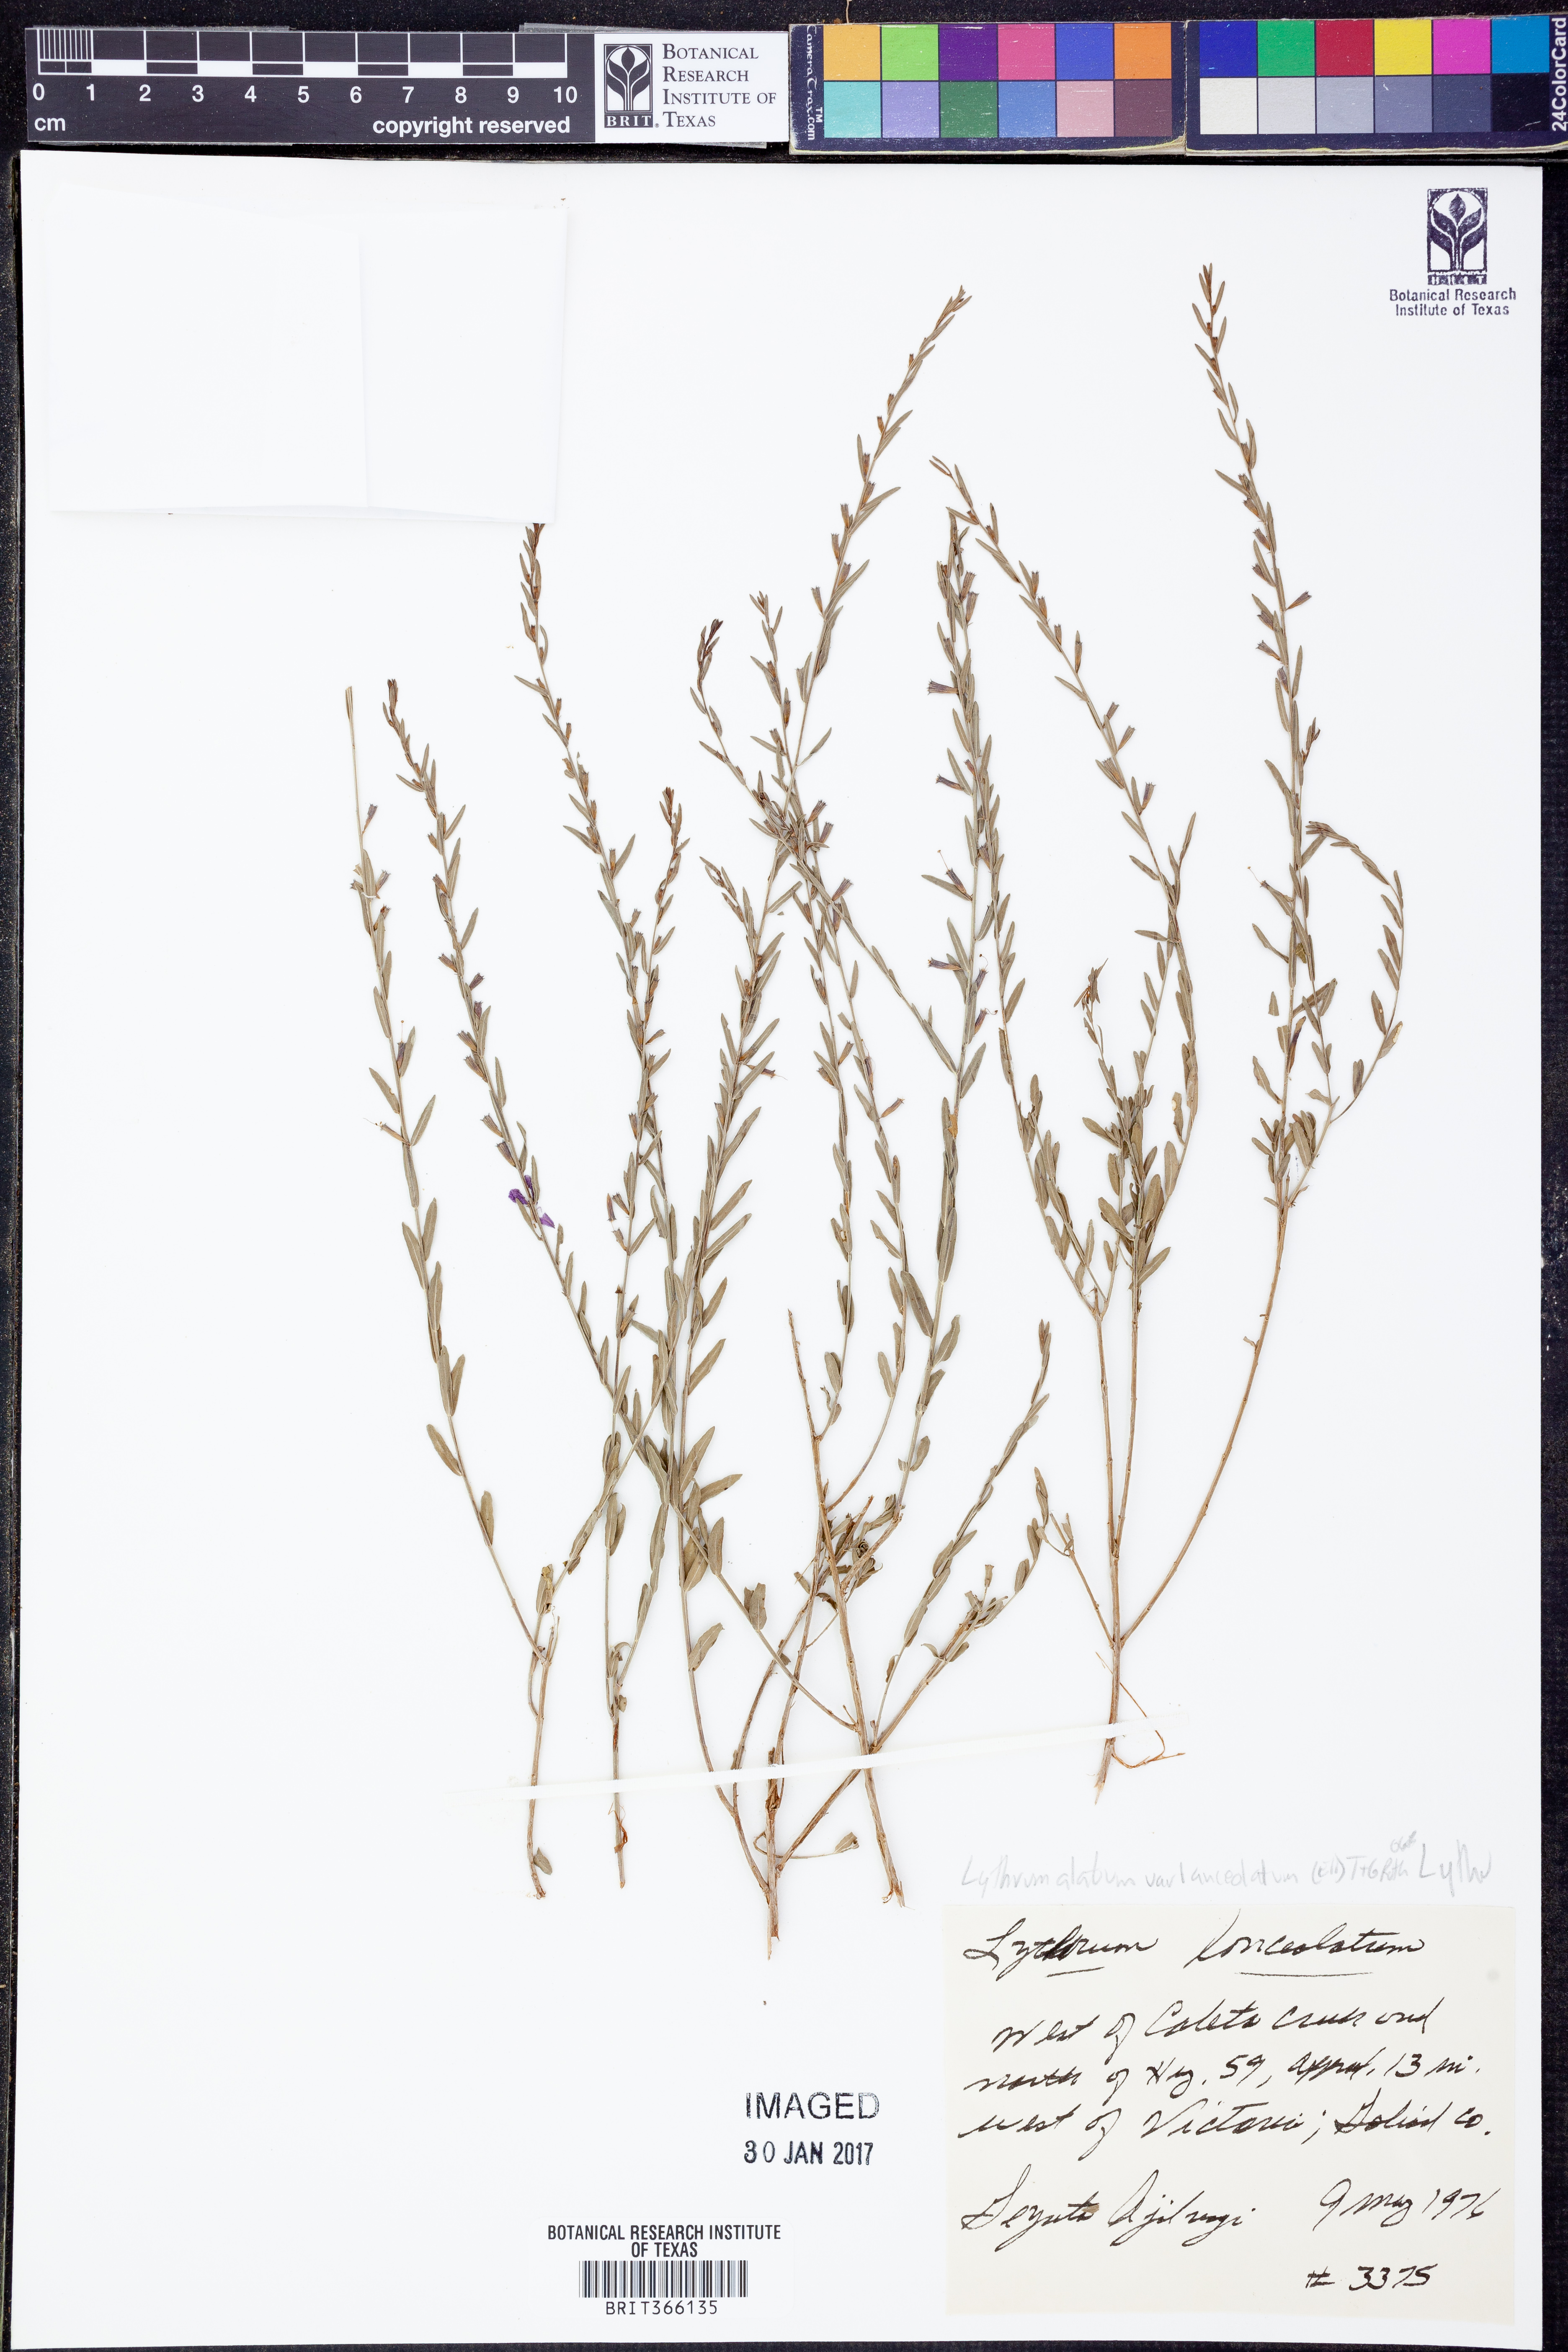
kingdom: Plantae
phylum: Tracheophyta
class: Magnoliopsida
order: Myrtales
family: Lythraceae
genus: Lythrum
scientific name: Lythrum alatum
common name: Winged loosestrife
